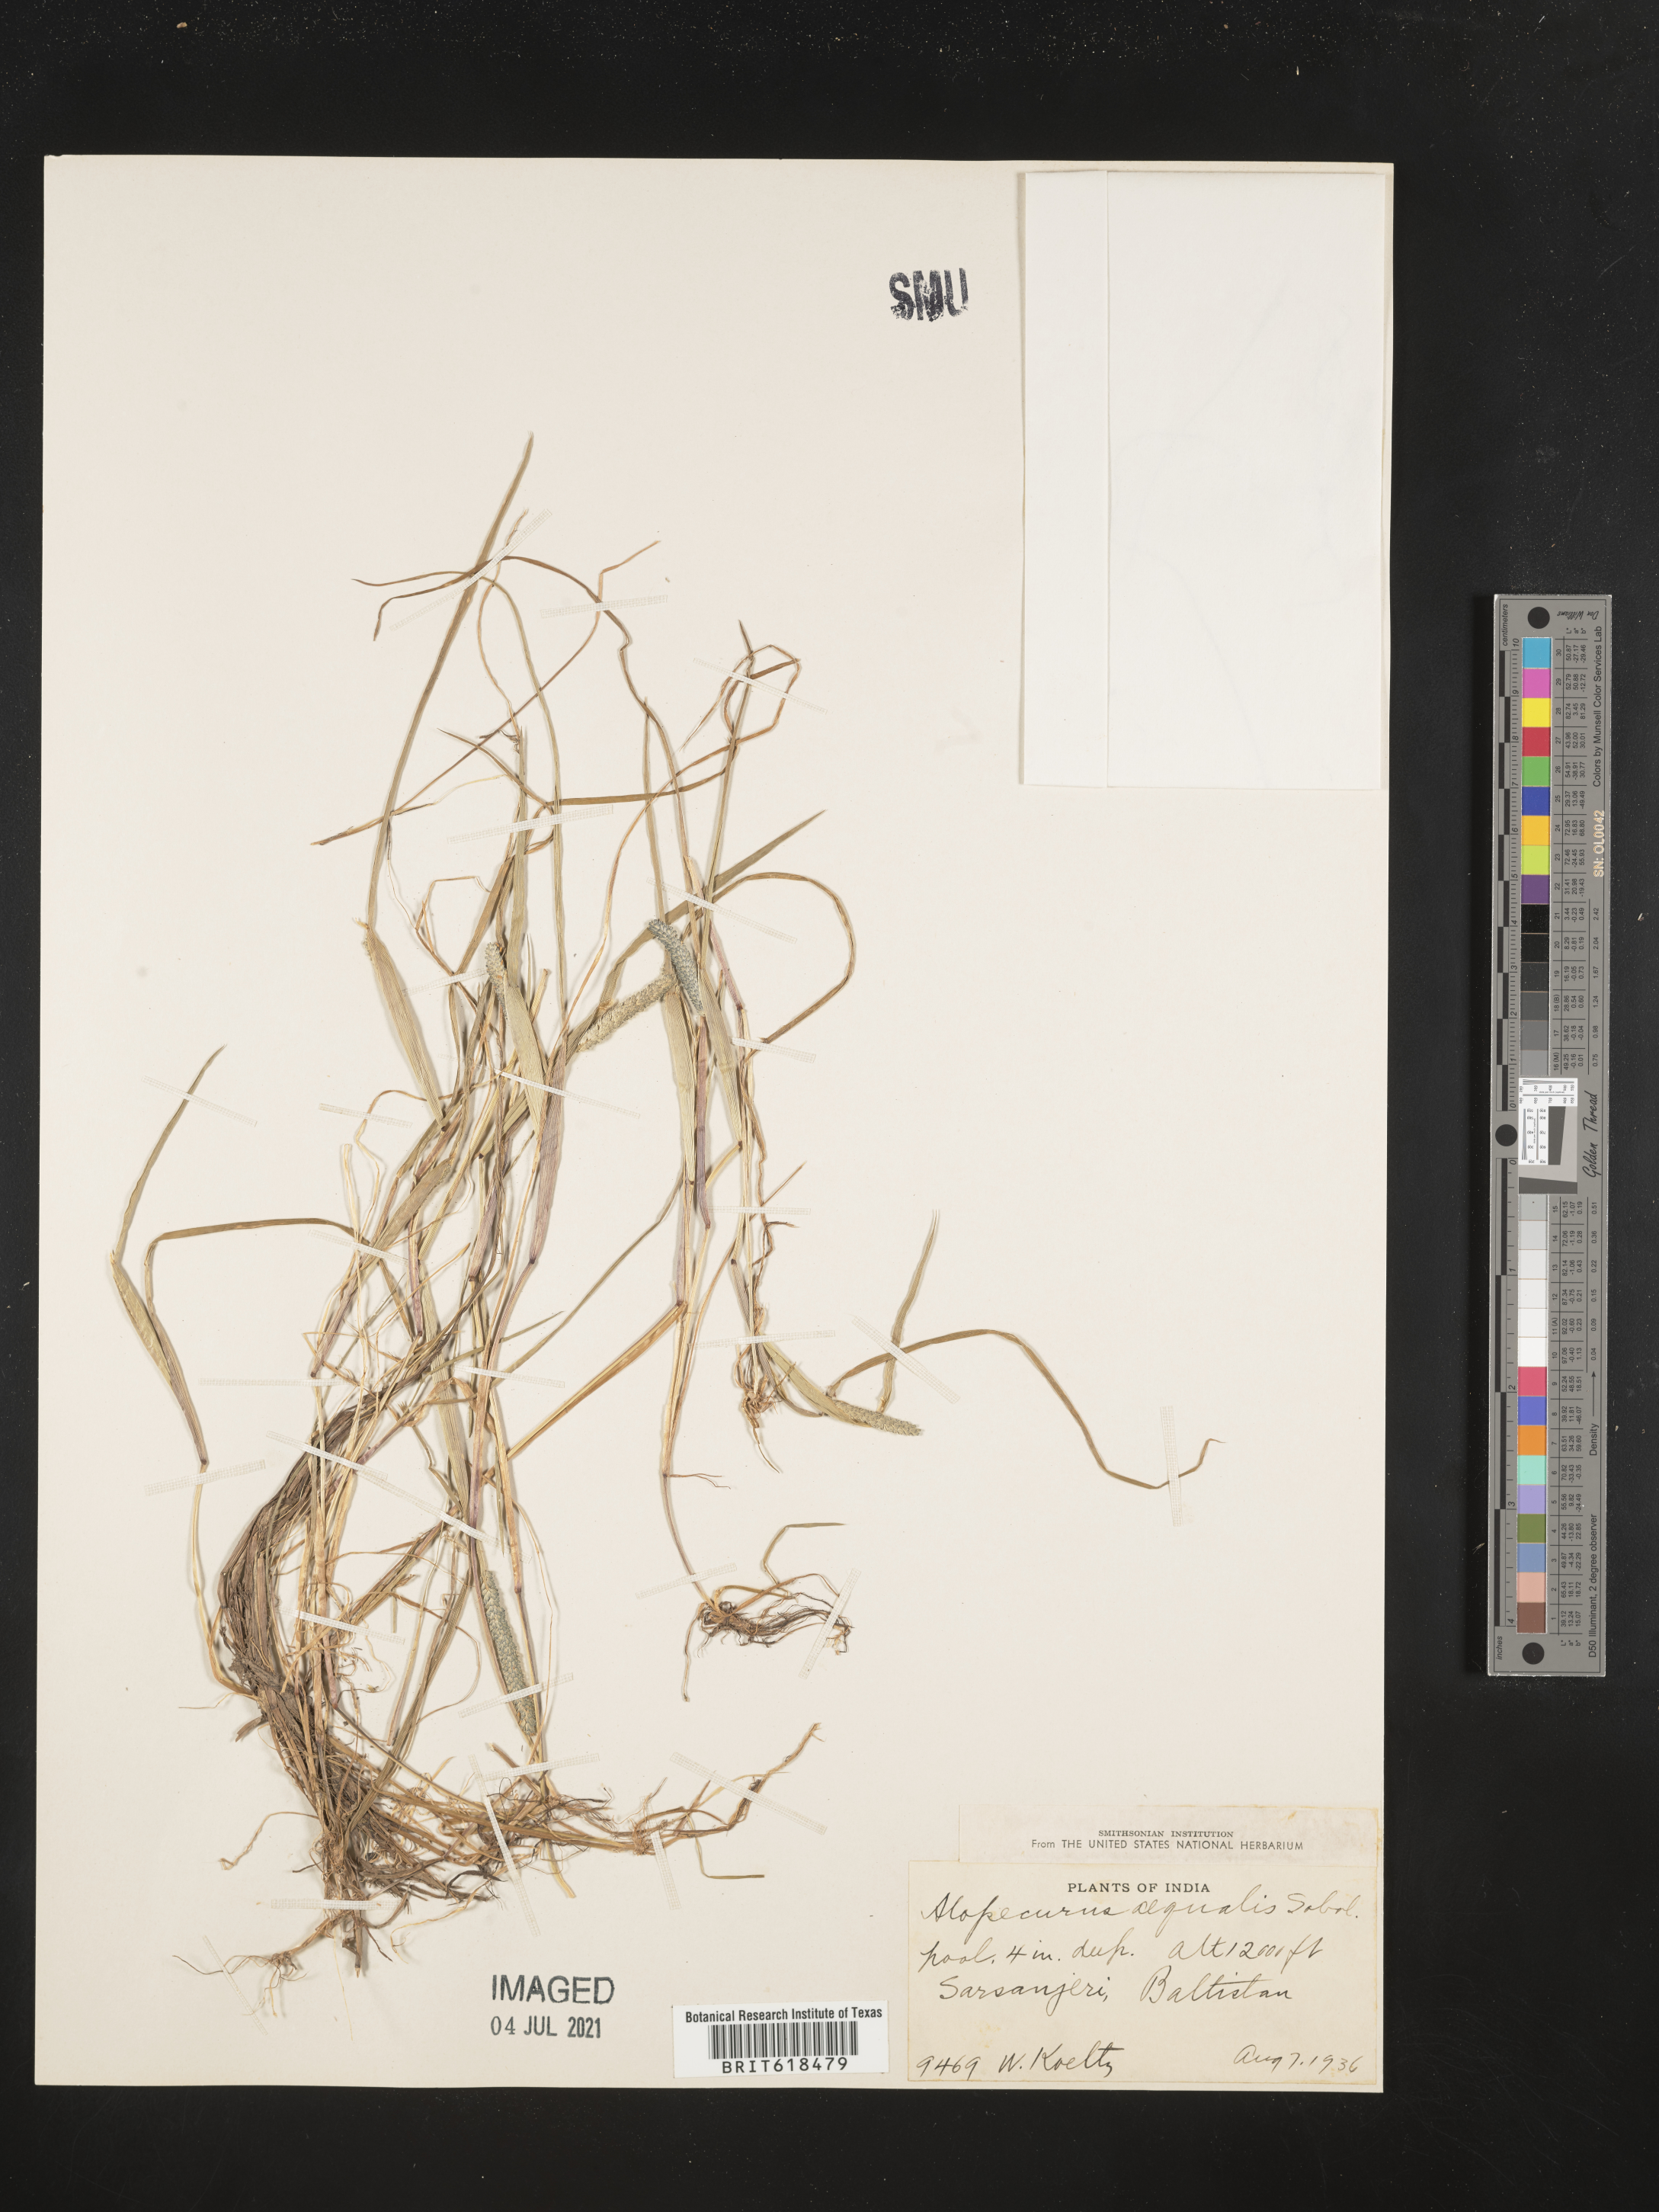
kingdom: Plantae
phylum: Tracheophyta
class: Liliopsida
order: Poales
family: Poaceae
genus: Alopecurus
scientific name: Alopecurus aequalis
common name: Orange foxtail
